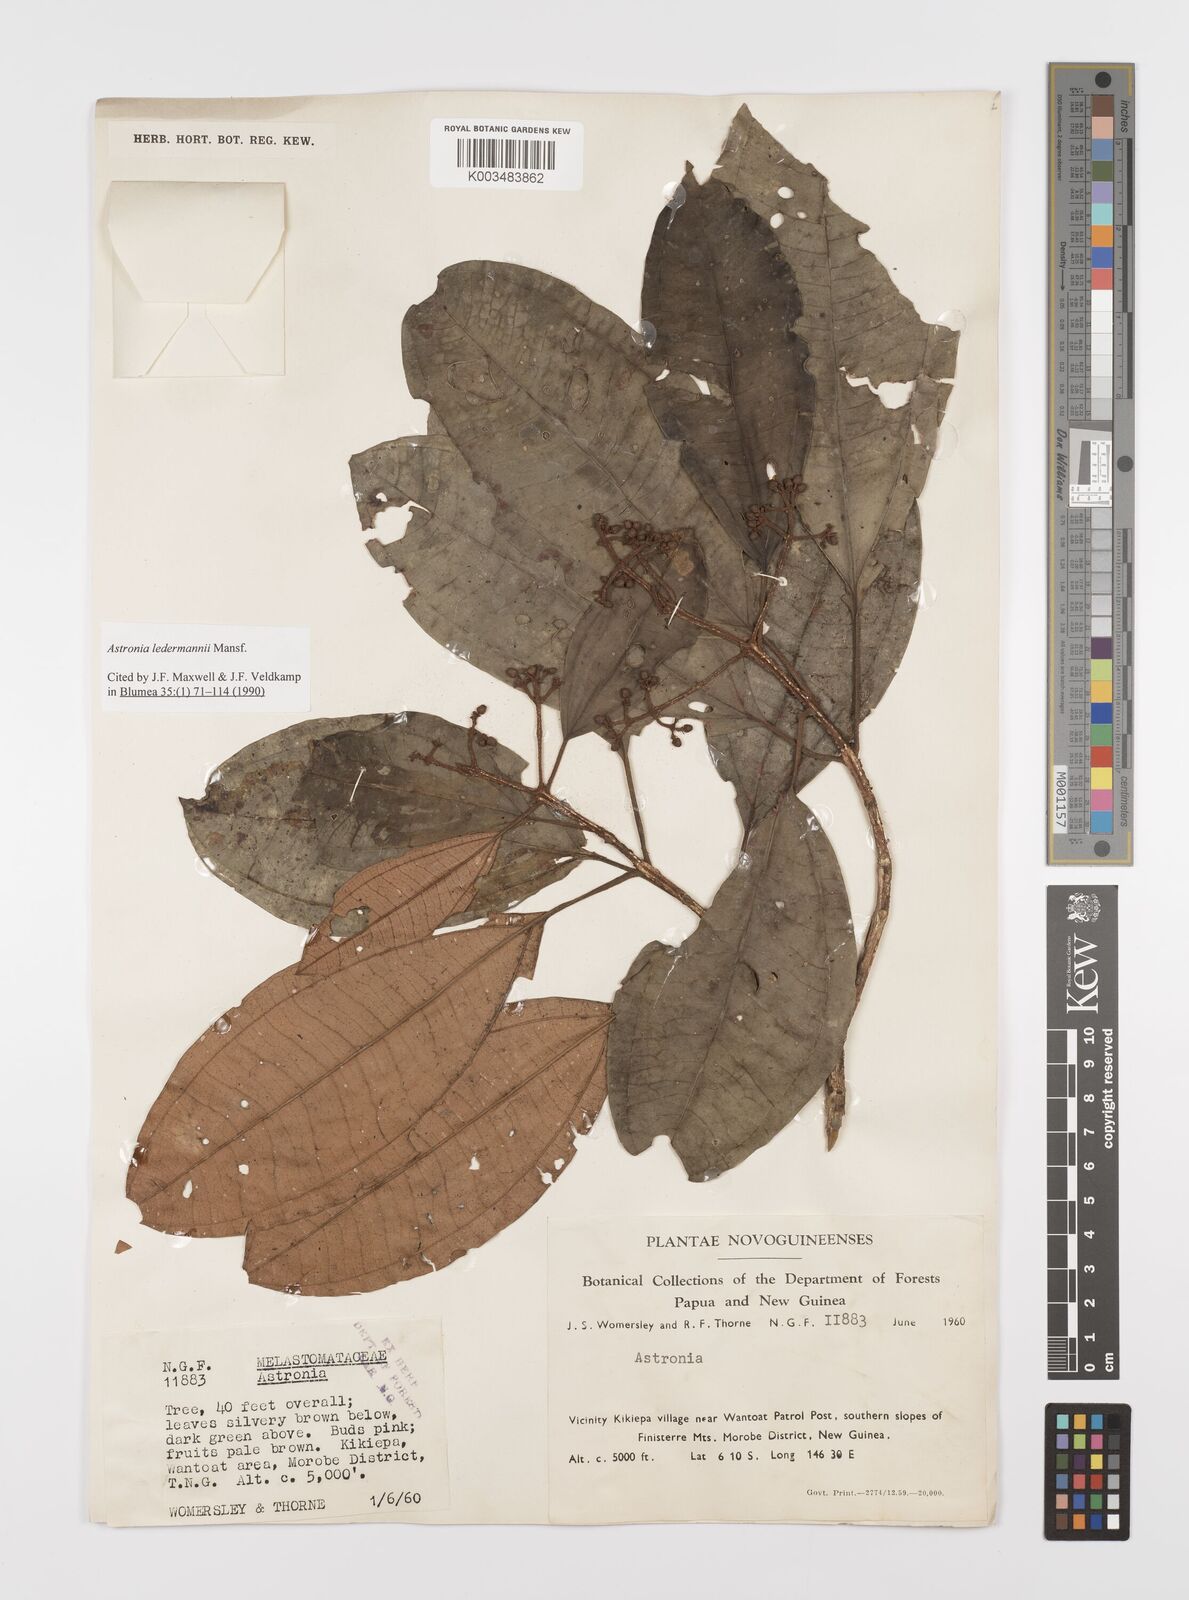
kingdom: Plantae
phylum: Tracheophyta
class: Magnoliopsida
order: Myrtales
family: Melastomataceae
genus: Astronia
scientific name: Astronia ledermannii
